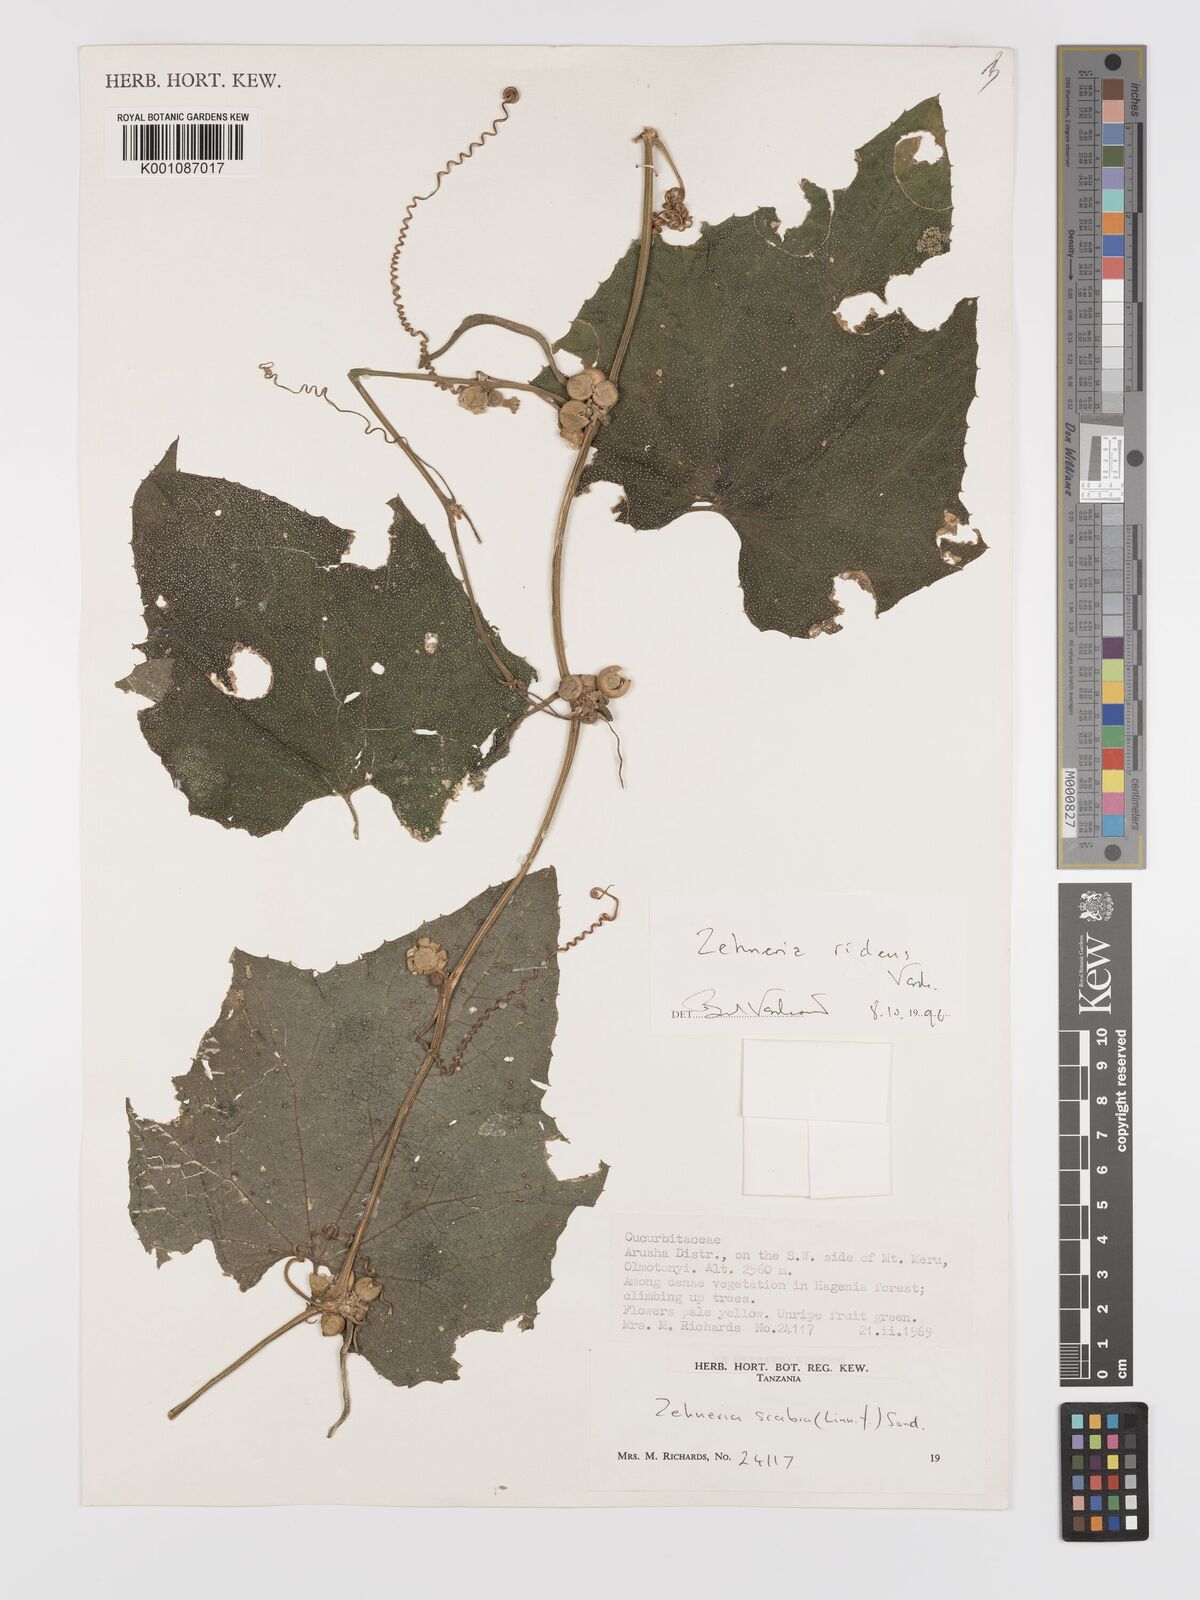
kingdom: Plantae
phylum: Tracheophyta
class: Magnoliopsida
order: Cucurbitales
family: Cucurbitaceae
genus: Zehneria
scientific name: Zehneria ridens
